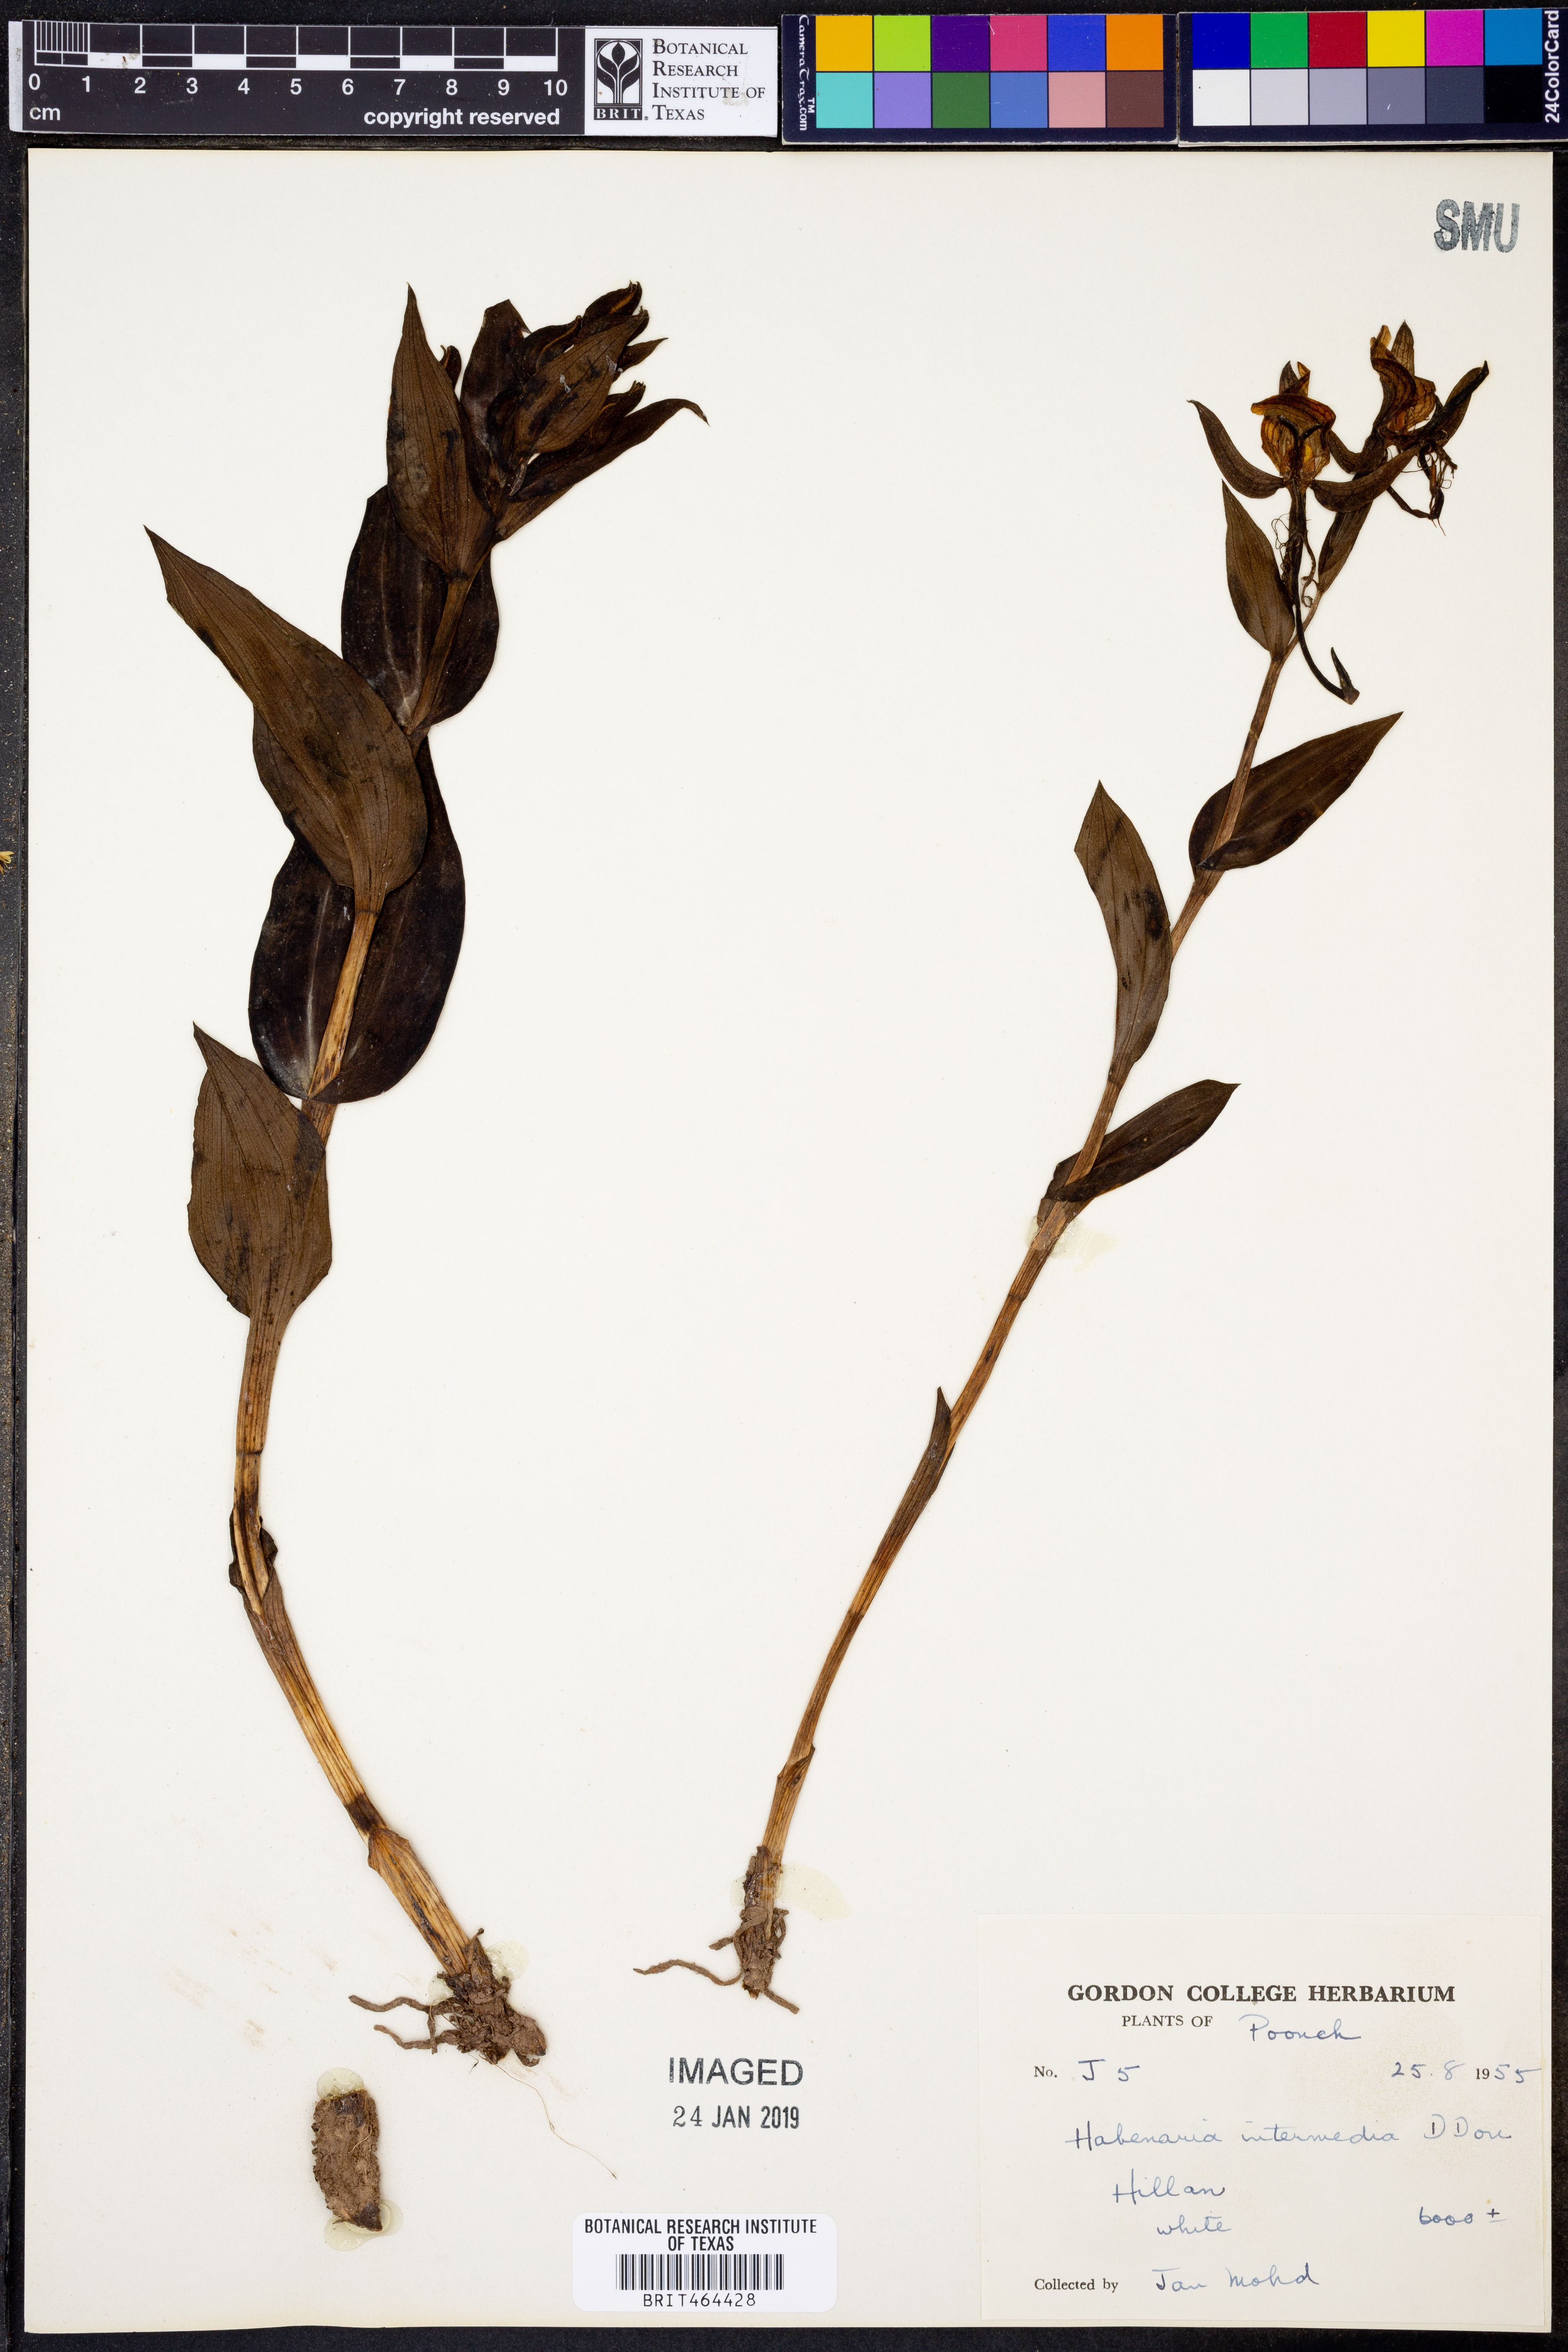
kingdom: Plantae
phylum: Tracheophyta
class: Liliopsida
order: Asparagales
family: Orchidaceae
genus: Habenaria
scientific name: Habenaria intermedia
